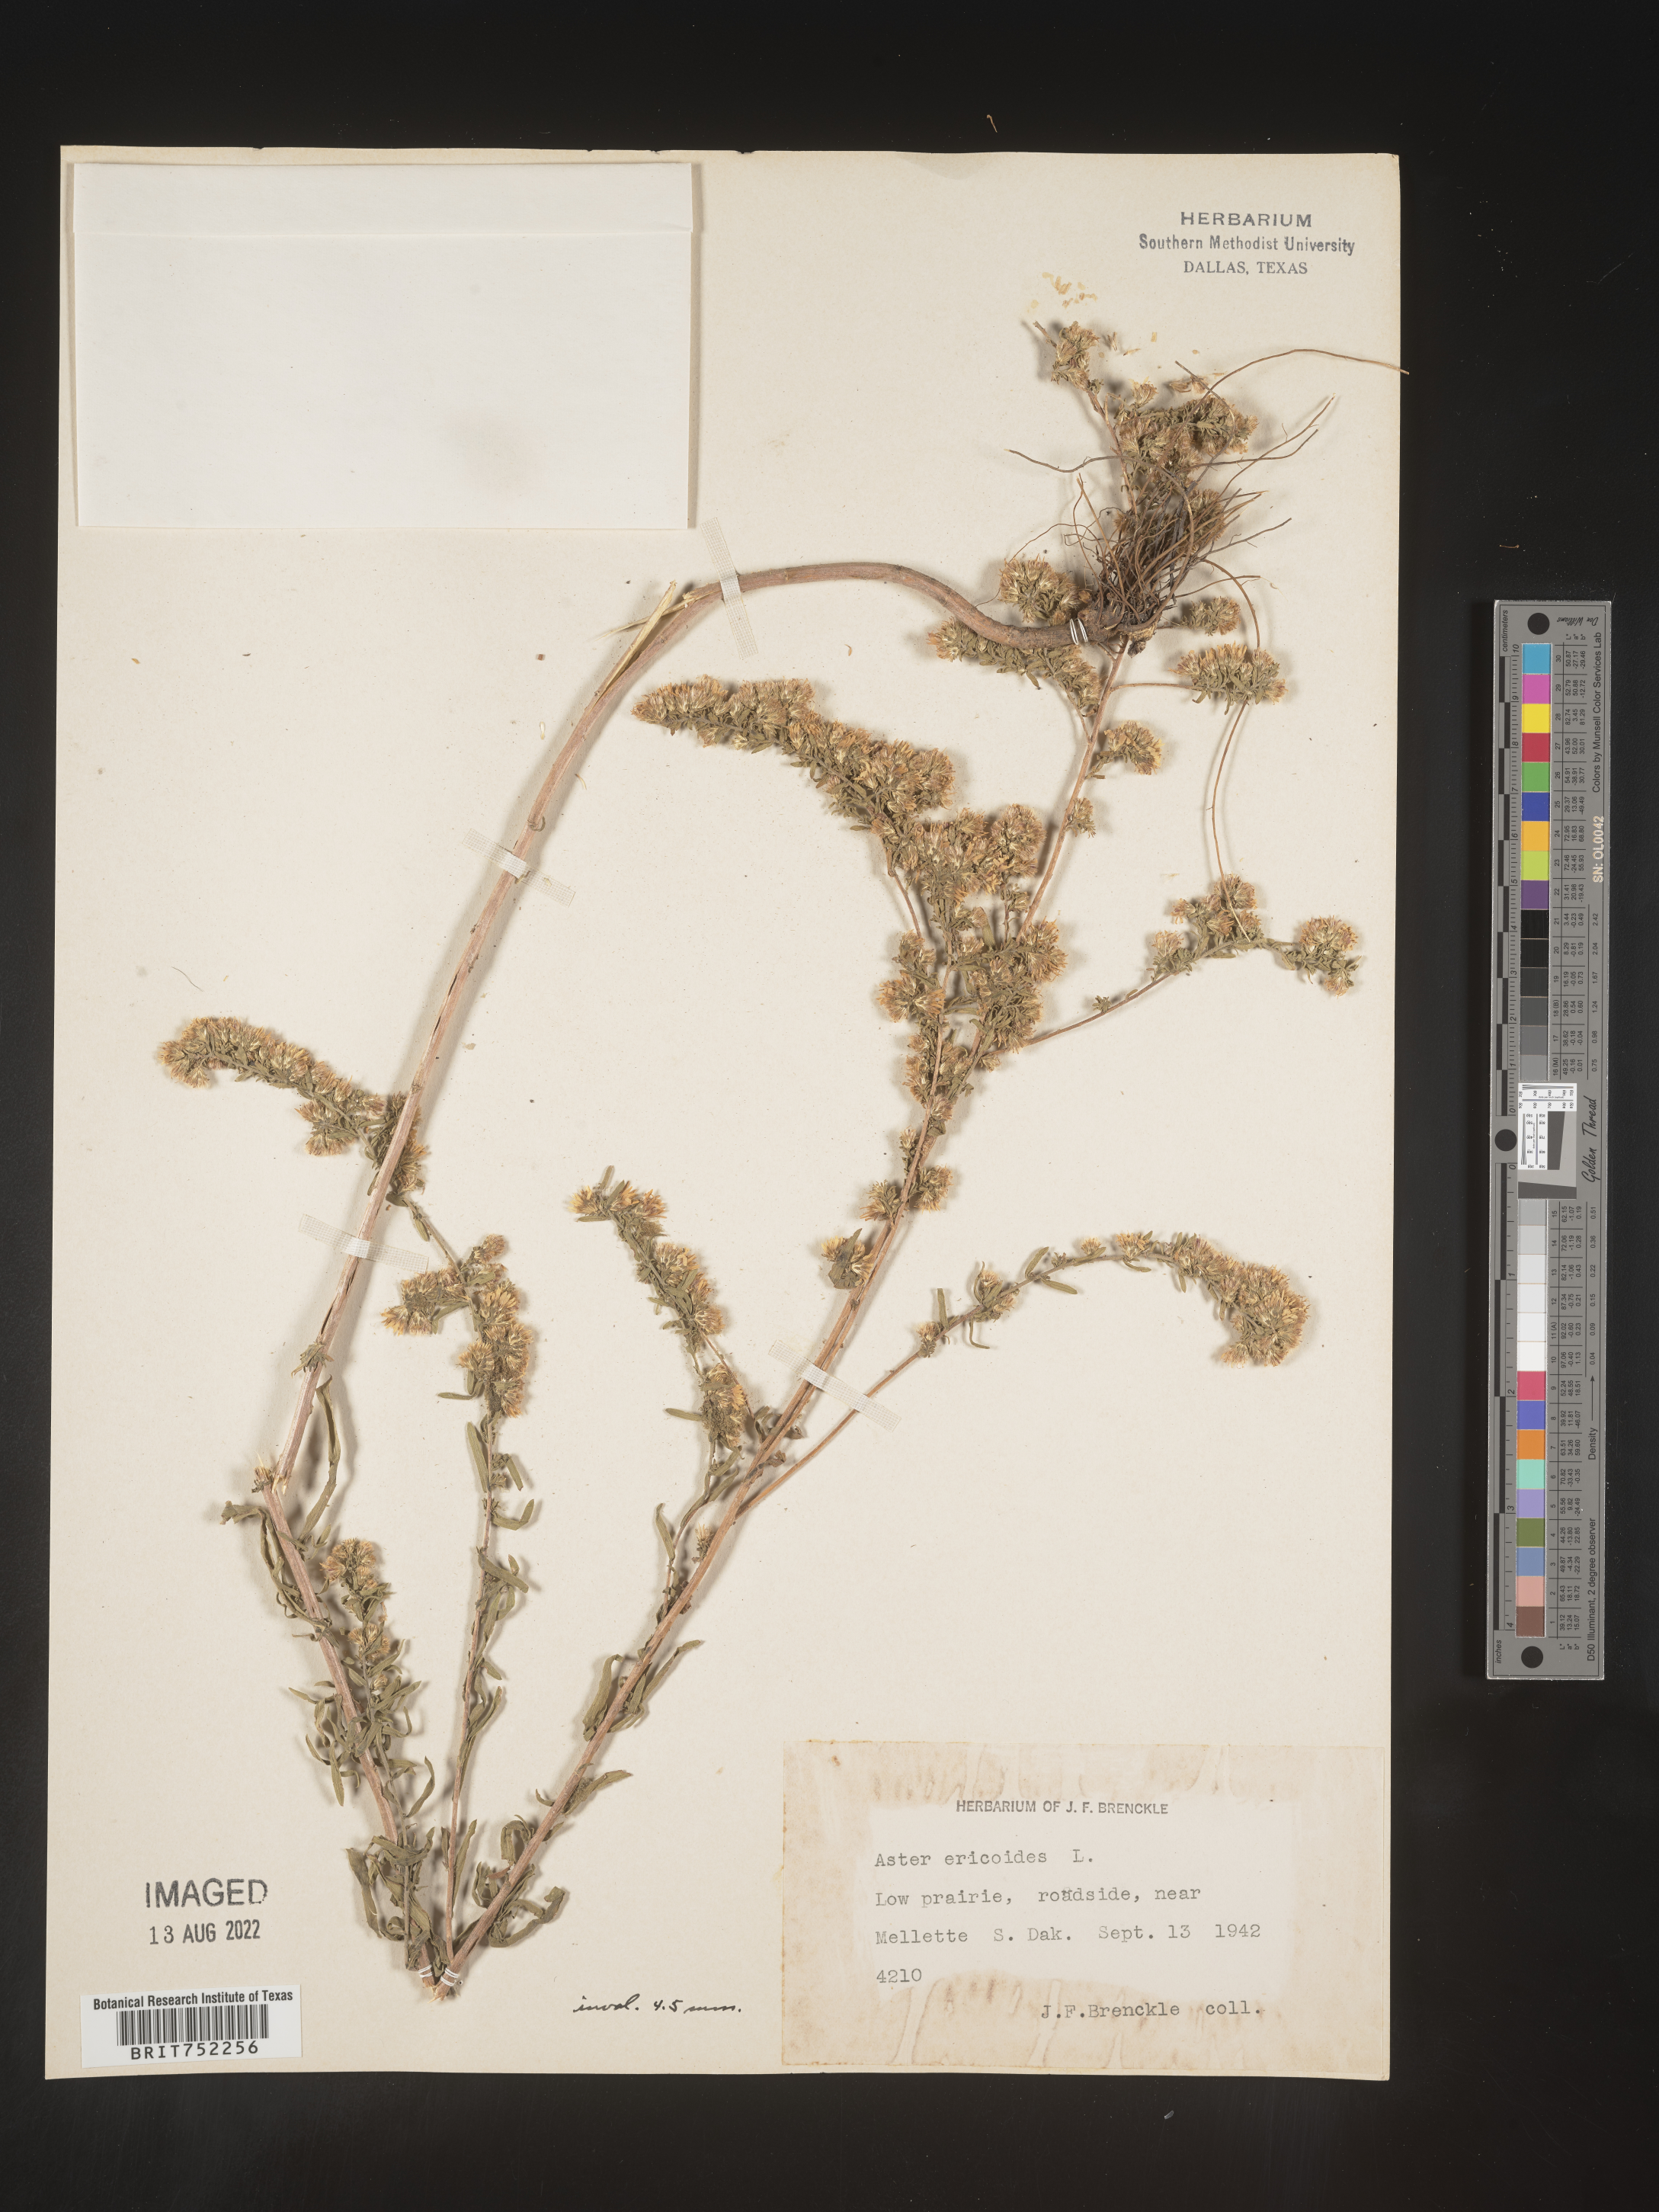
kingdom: Plantae
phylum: Tracheophyta
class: Magnoliopsida
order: Asterales
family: Asteraceae
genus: Symphyotrichum
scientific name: Symphyotrichum ericoides
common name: Heath aster
